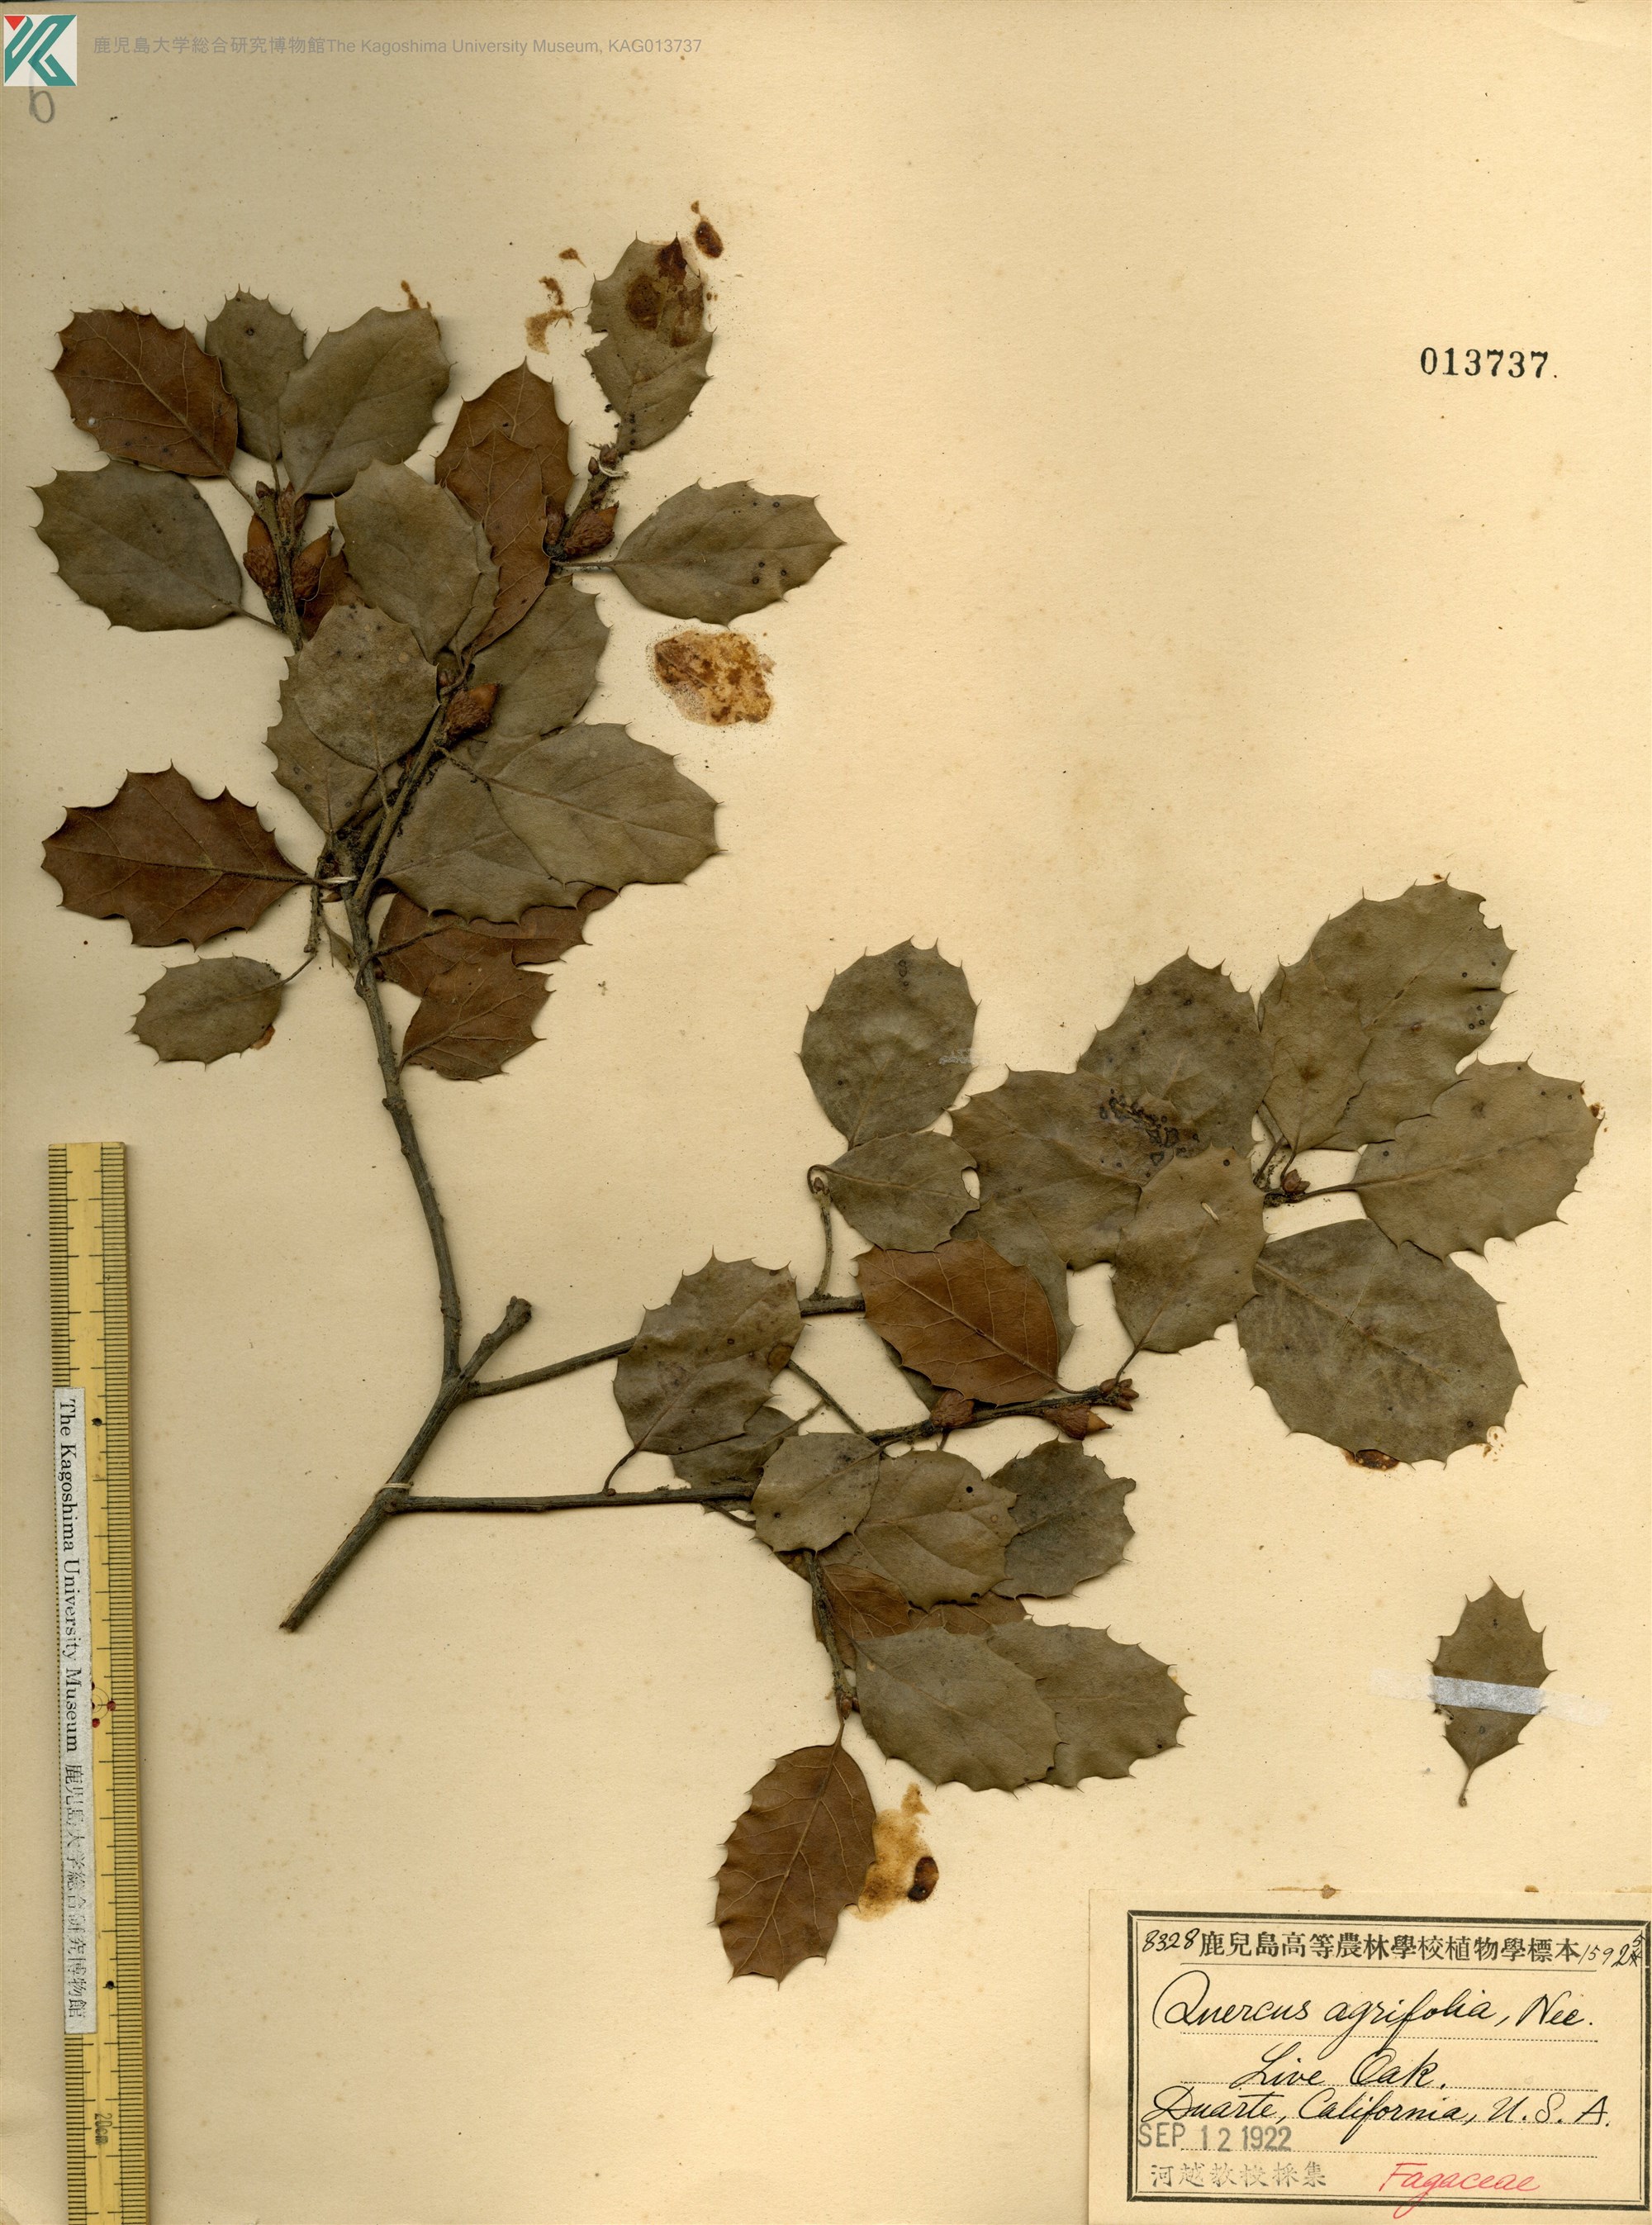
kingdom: Plantae
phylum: Tracheophyta
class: Magnoliopsida
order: Fagales
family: Fagaceae
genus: Quercus
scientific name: Quercus agrifolia
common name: California live oak
